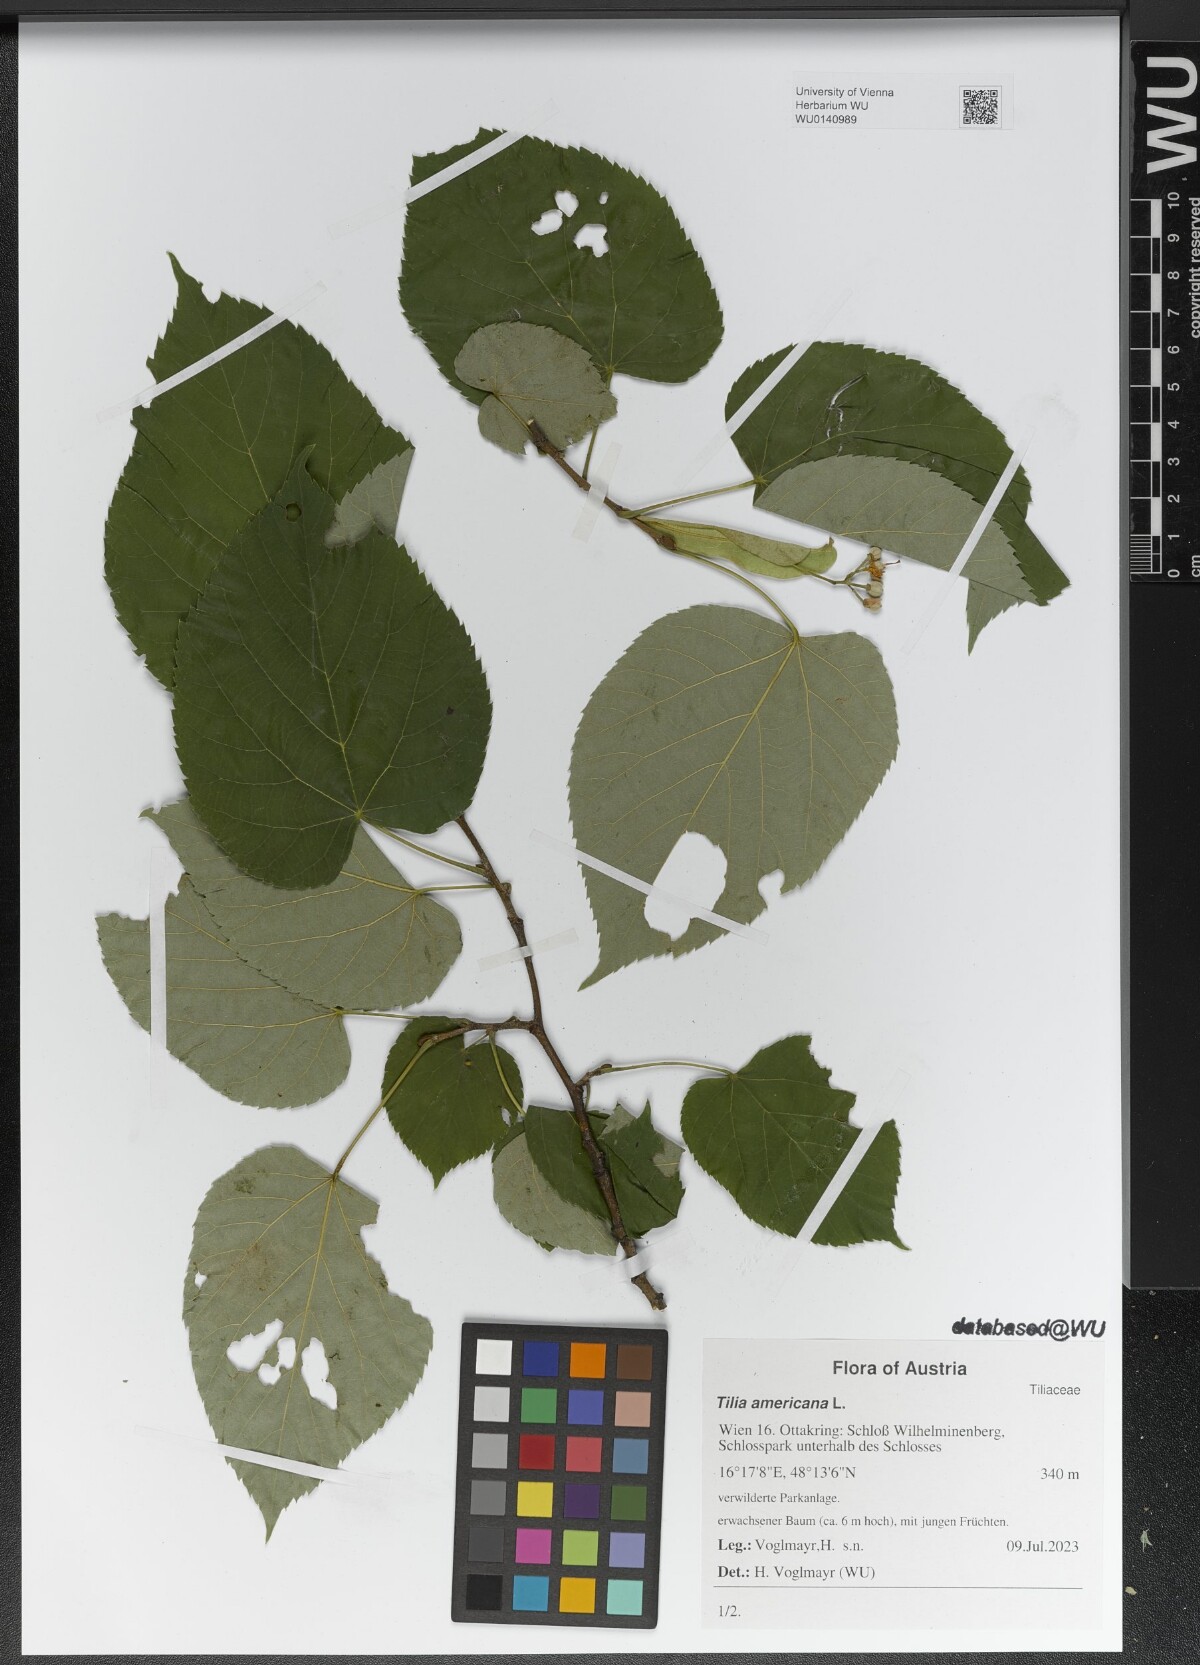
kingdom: Plantae
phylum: Tracheophyta
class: Magnoliopsida
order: Malvales
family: Malvaceae
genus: Tilia
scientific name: Tilia americana
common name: Basswood
